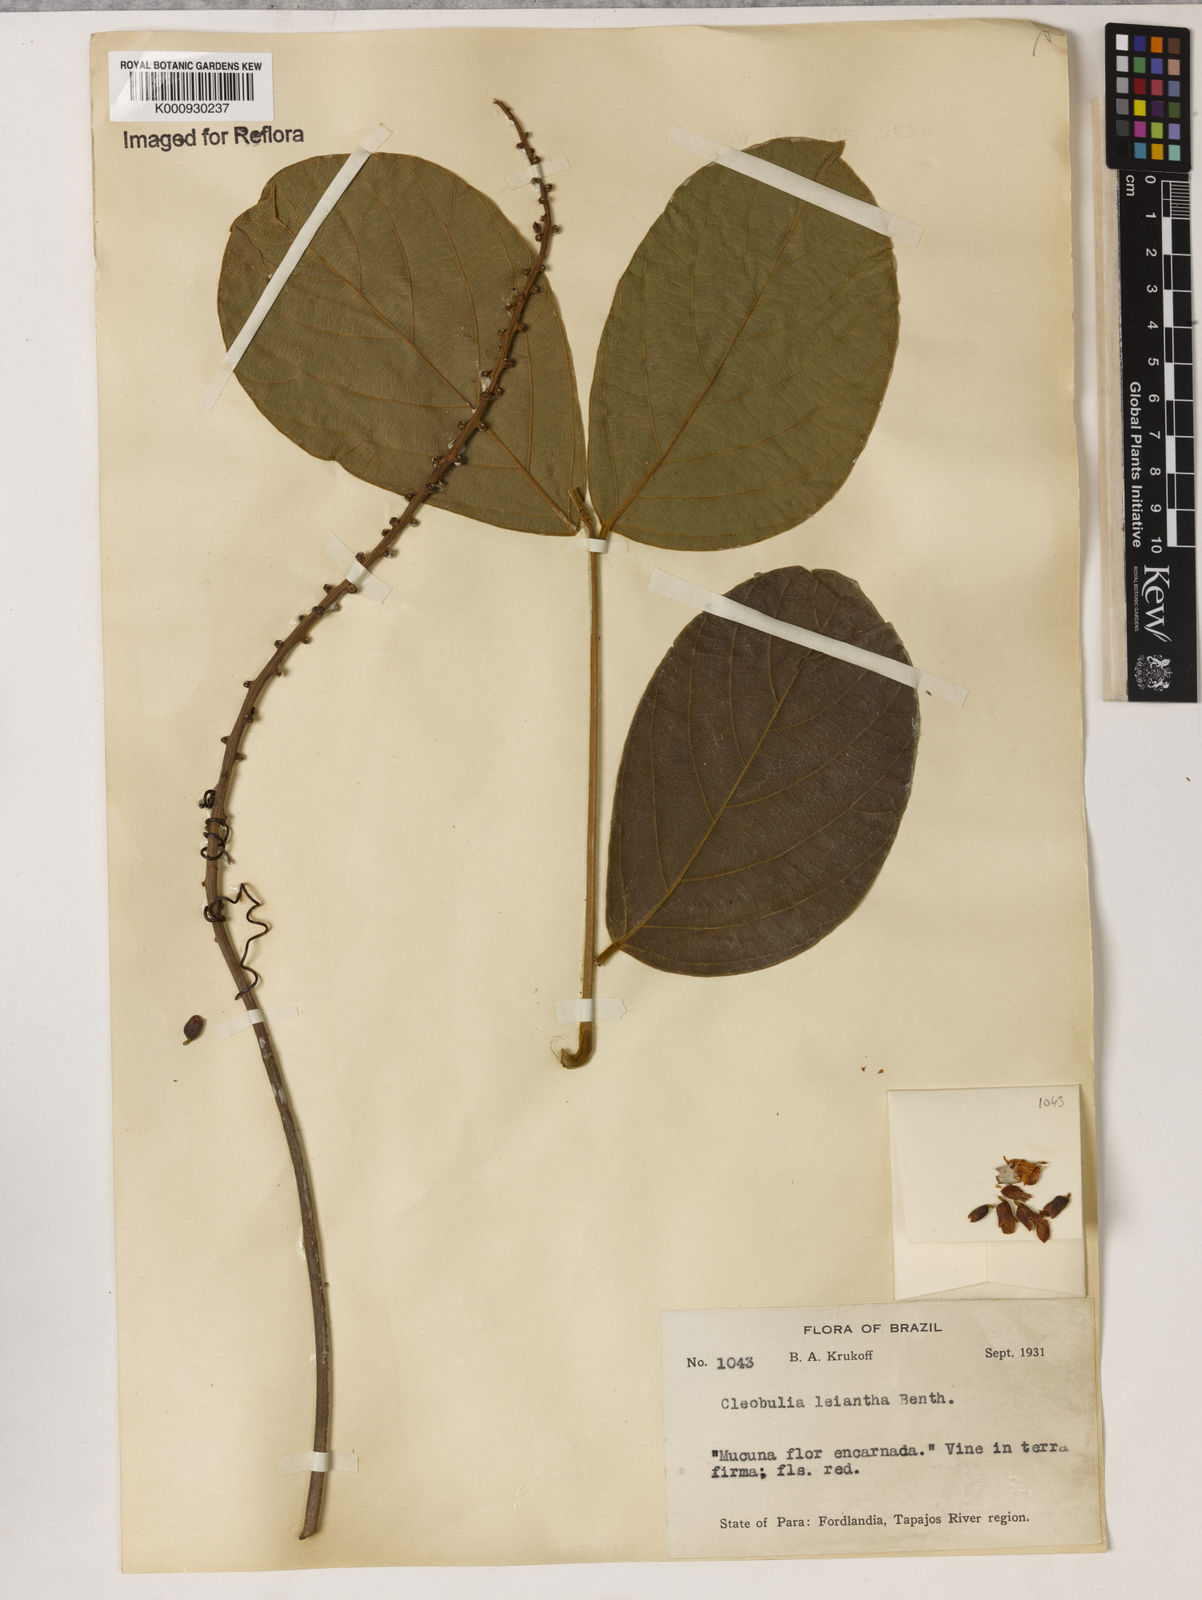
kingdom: Plantae
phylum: Tracheophyta
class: Magnoliopsida
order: Fabales
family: Fabaceae
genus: Cleobulia
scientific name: Cleobulia leiantha
